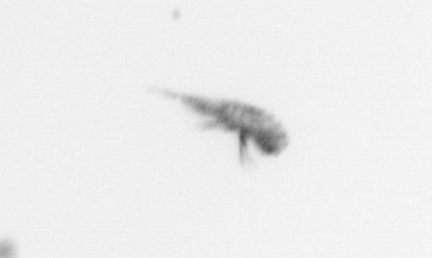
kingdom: Animalia
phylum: Arthropoda
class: Copepoda
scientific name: Copepoda
